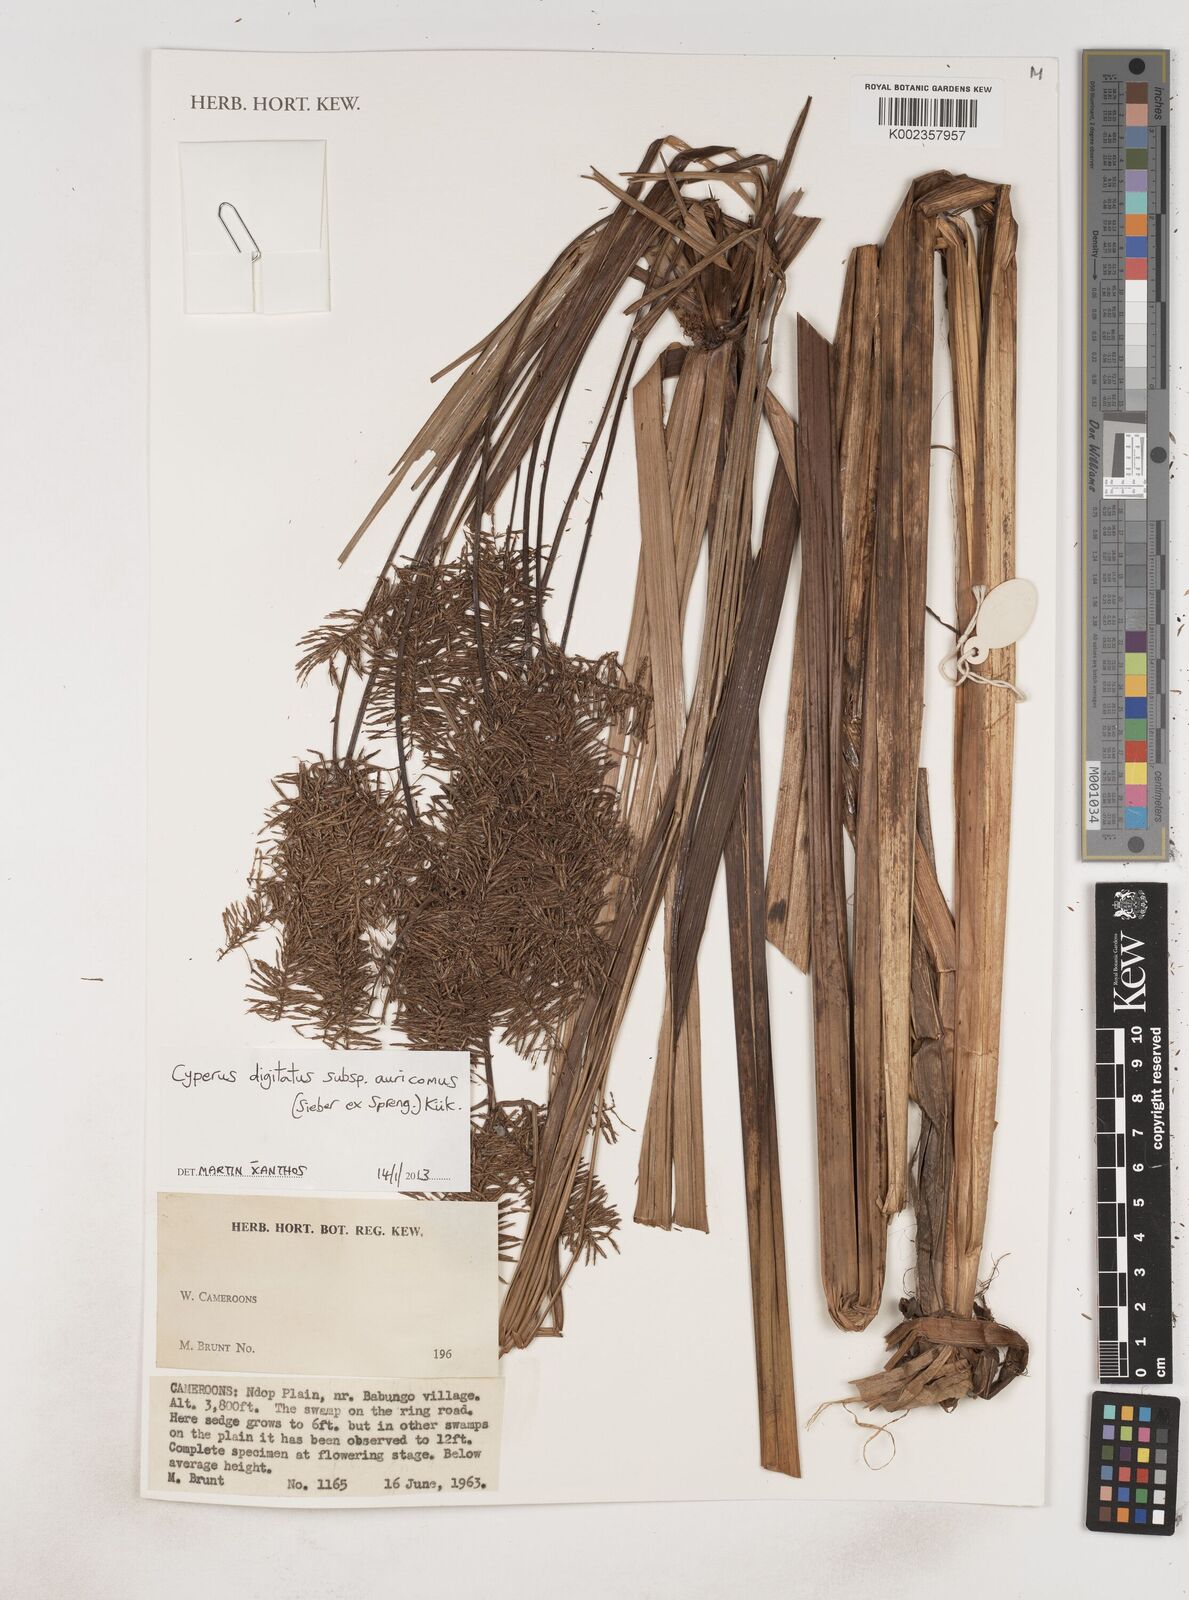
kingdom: Plantae
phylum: Tracheophyta
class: Liliopsida
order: Poales
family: Cyperaceae
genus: Cyperus
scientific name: Cyperus digitatus
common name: Finger flatsedge
